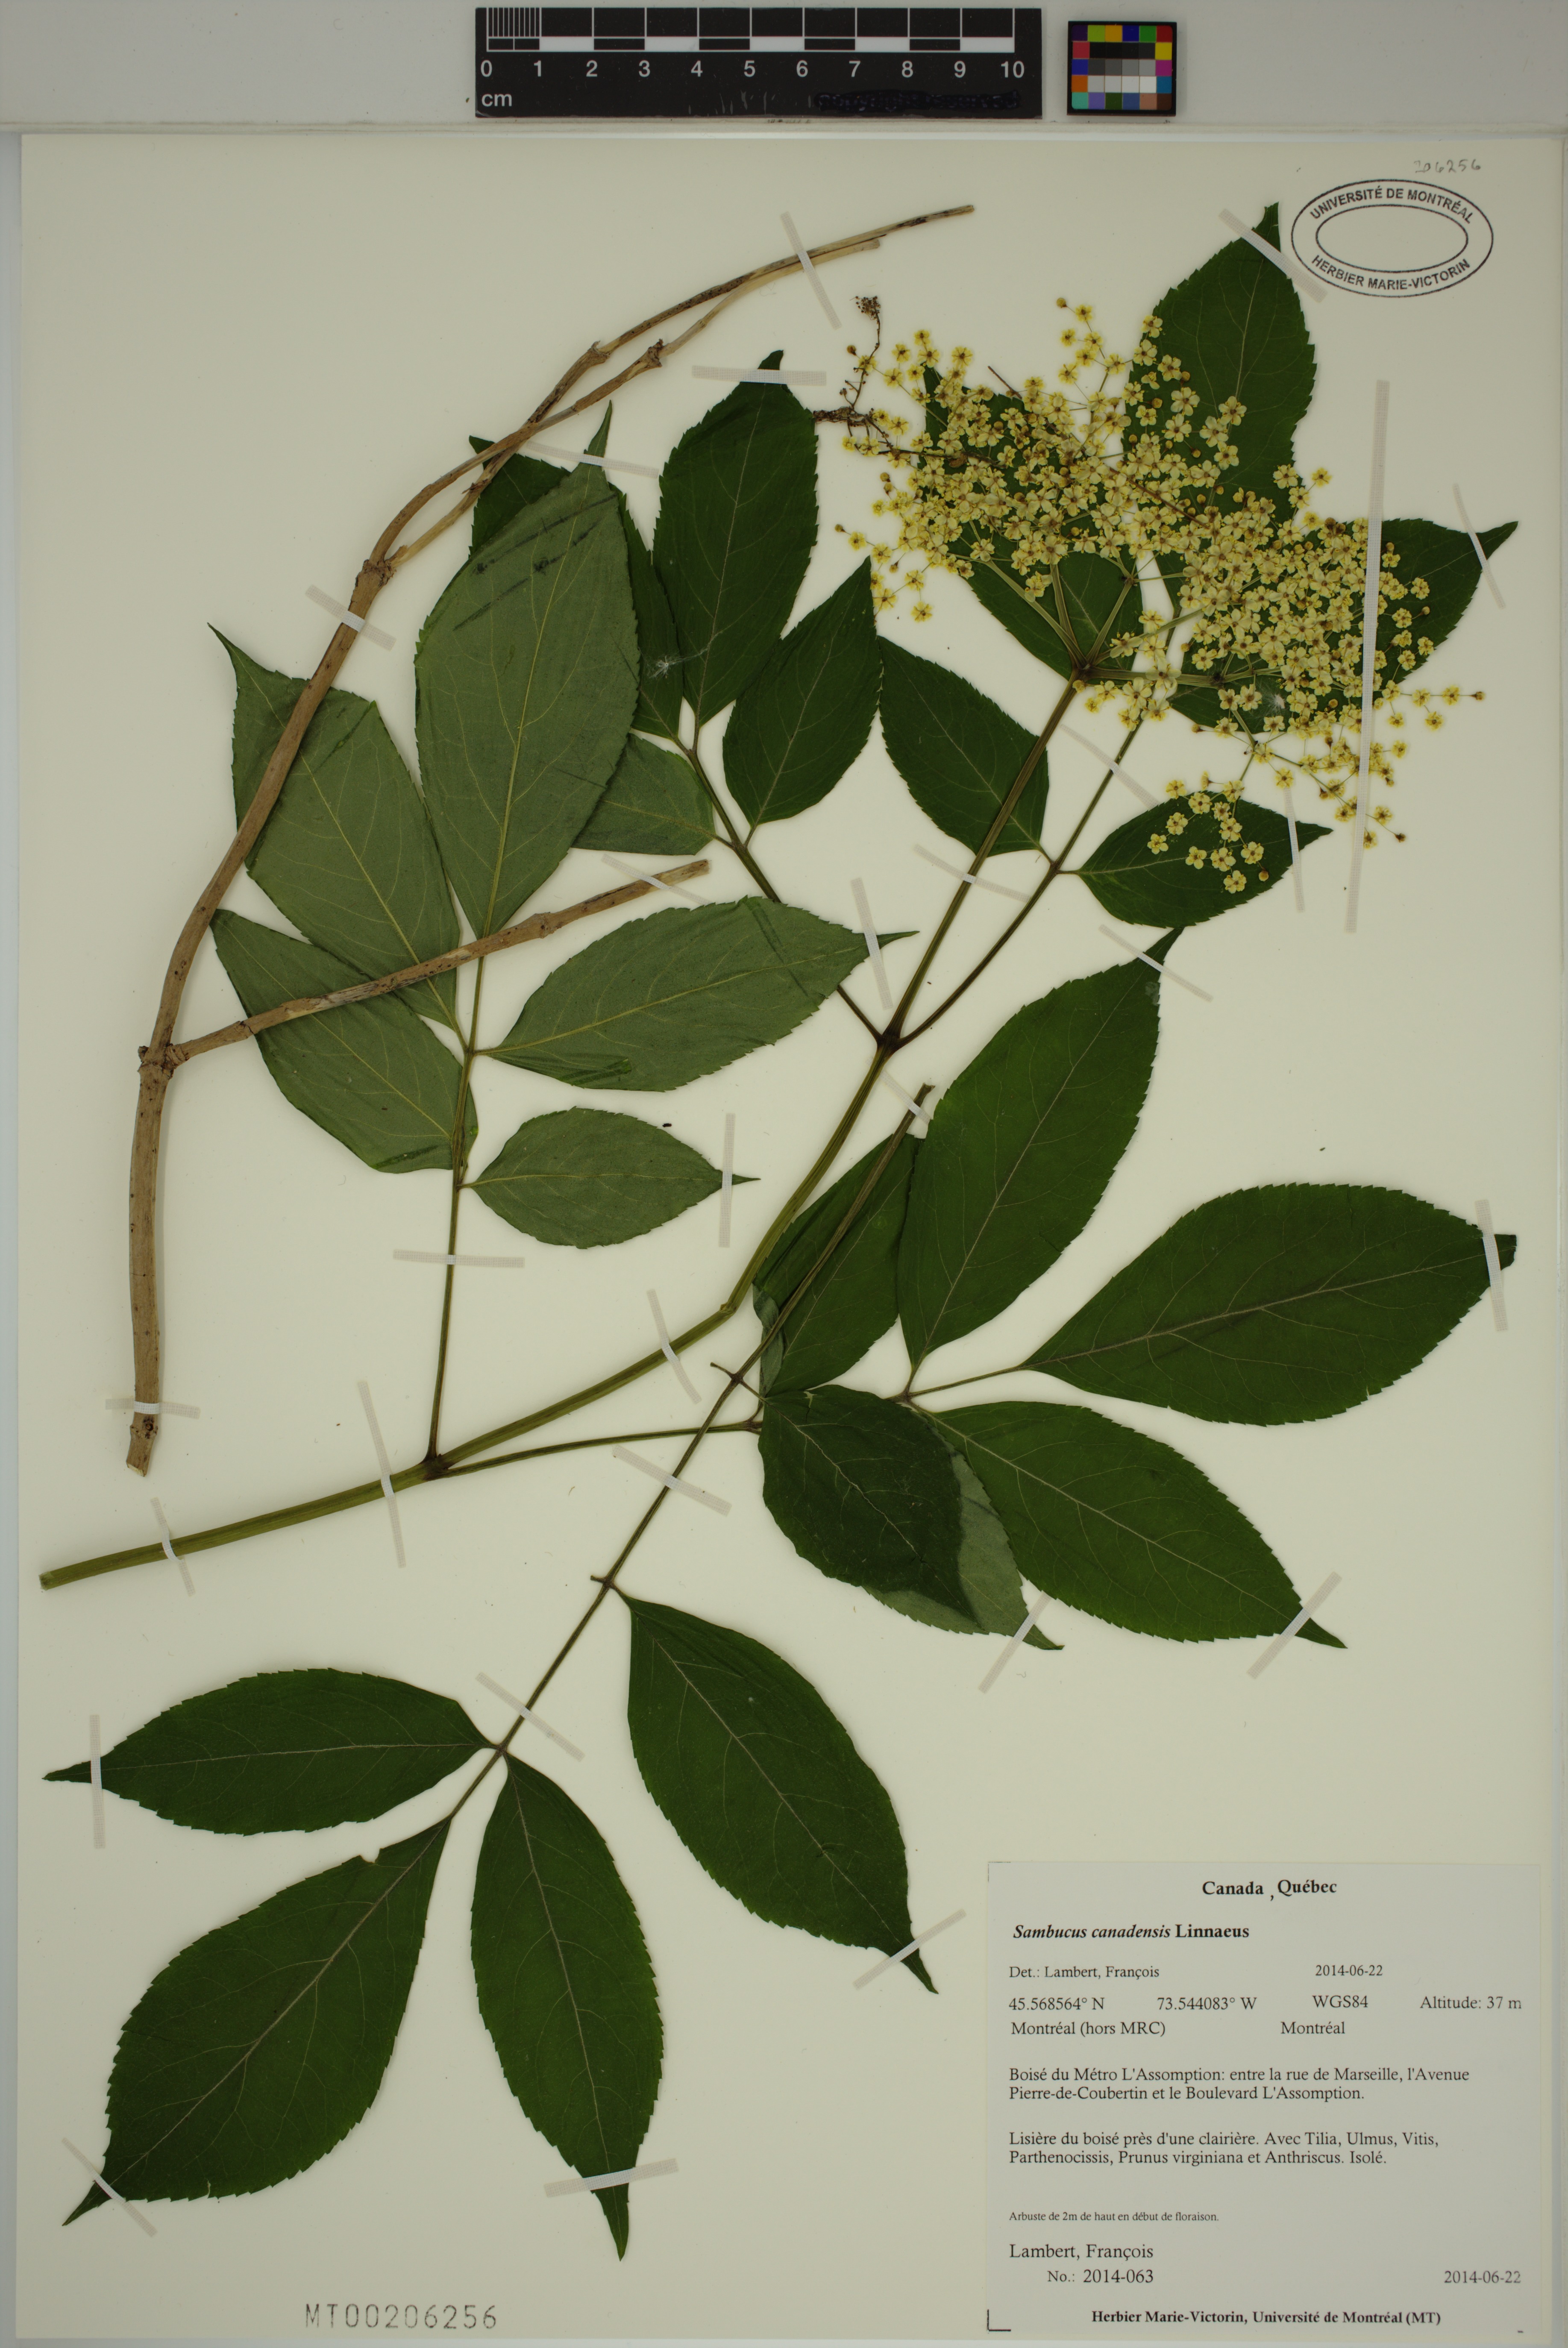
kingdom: Plantae
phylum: Tracheophyta
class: Magnoliopsida
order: Dipsacales
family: Viburnaceae
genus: Sambucus
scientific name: Sambucus canadensis
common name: American elder
